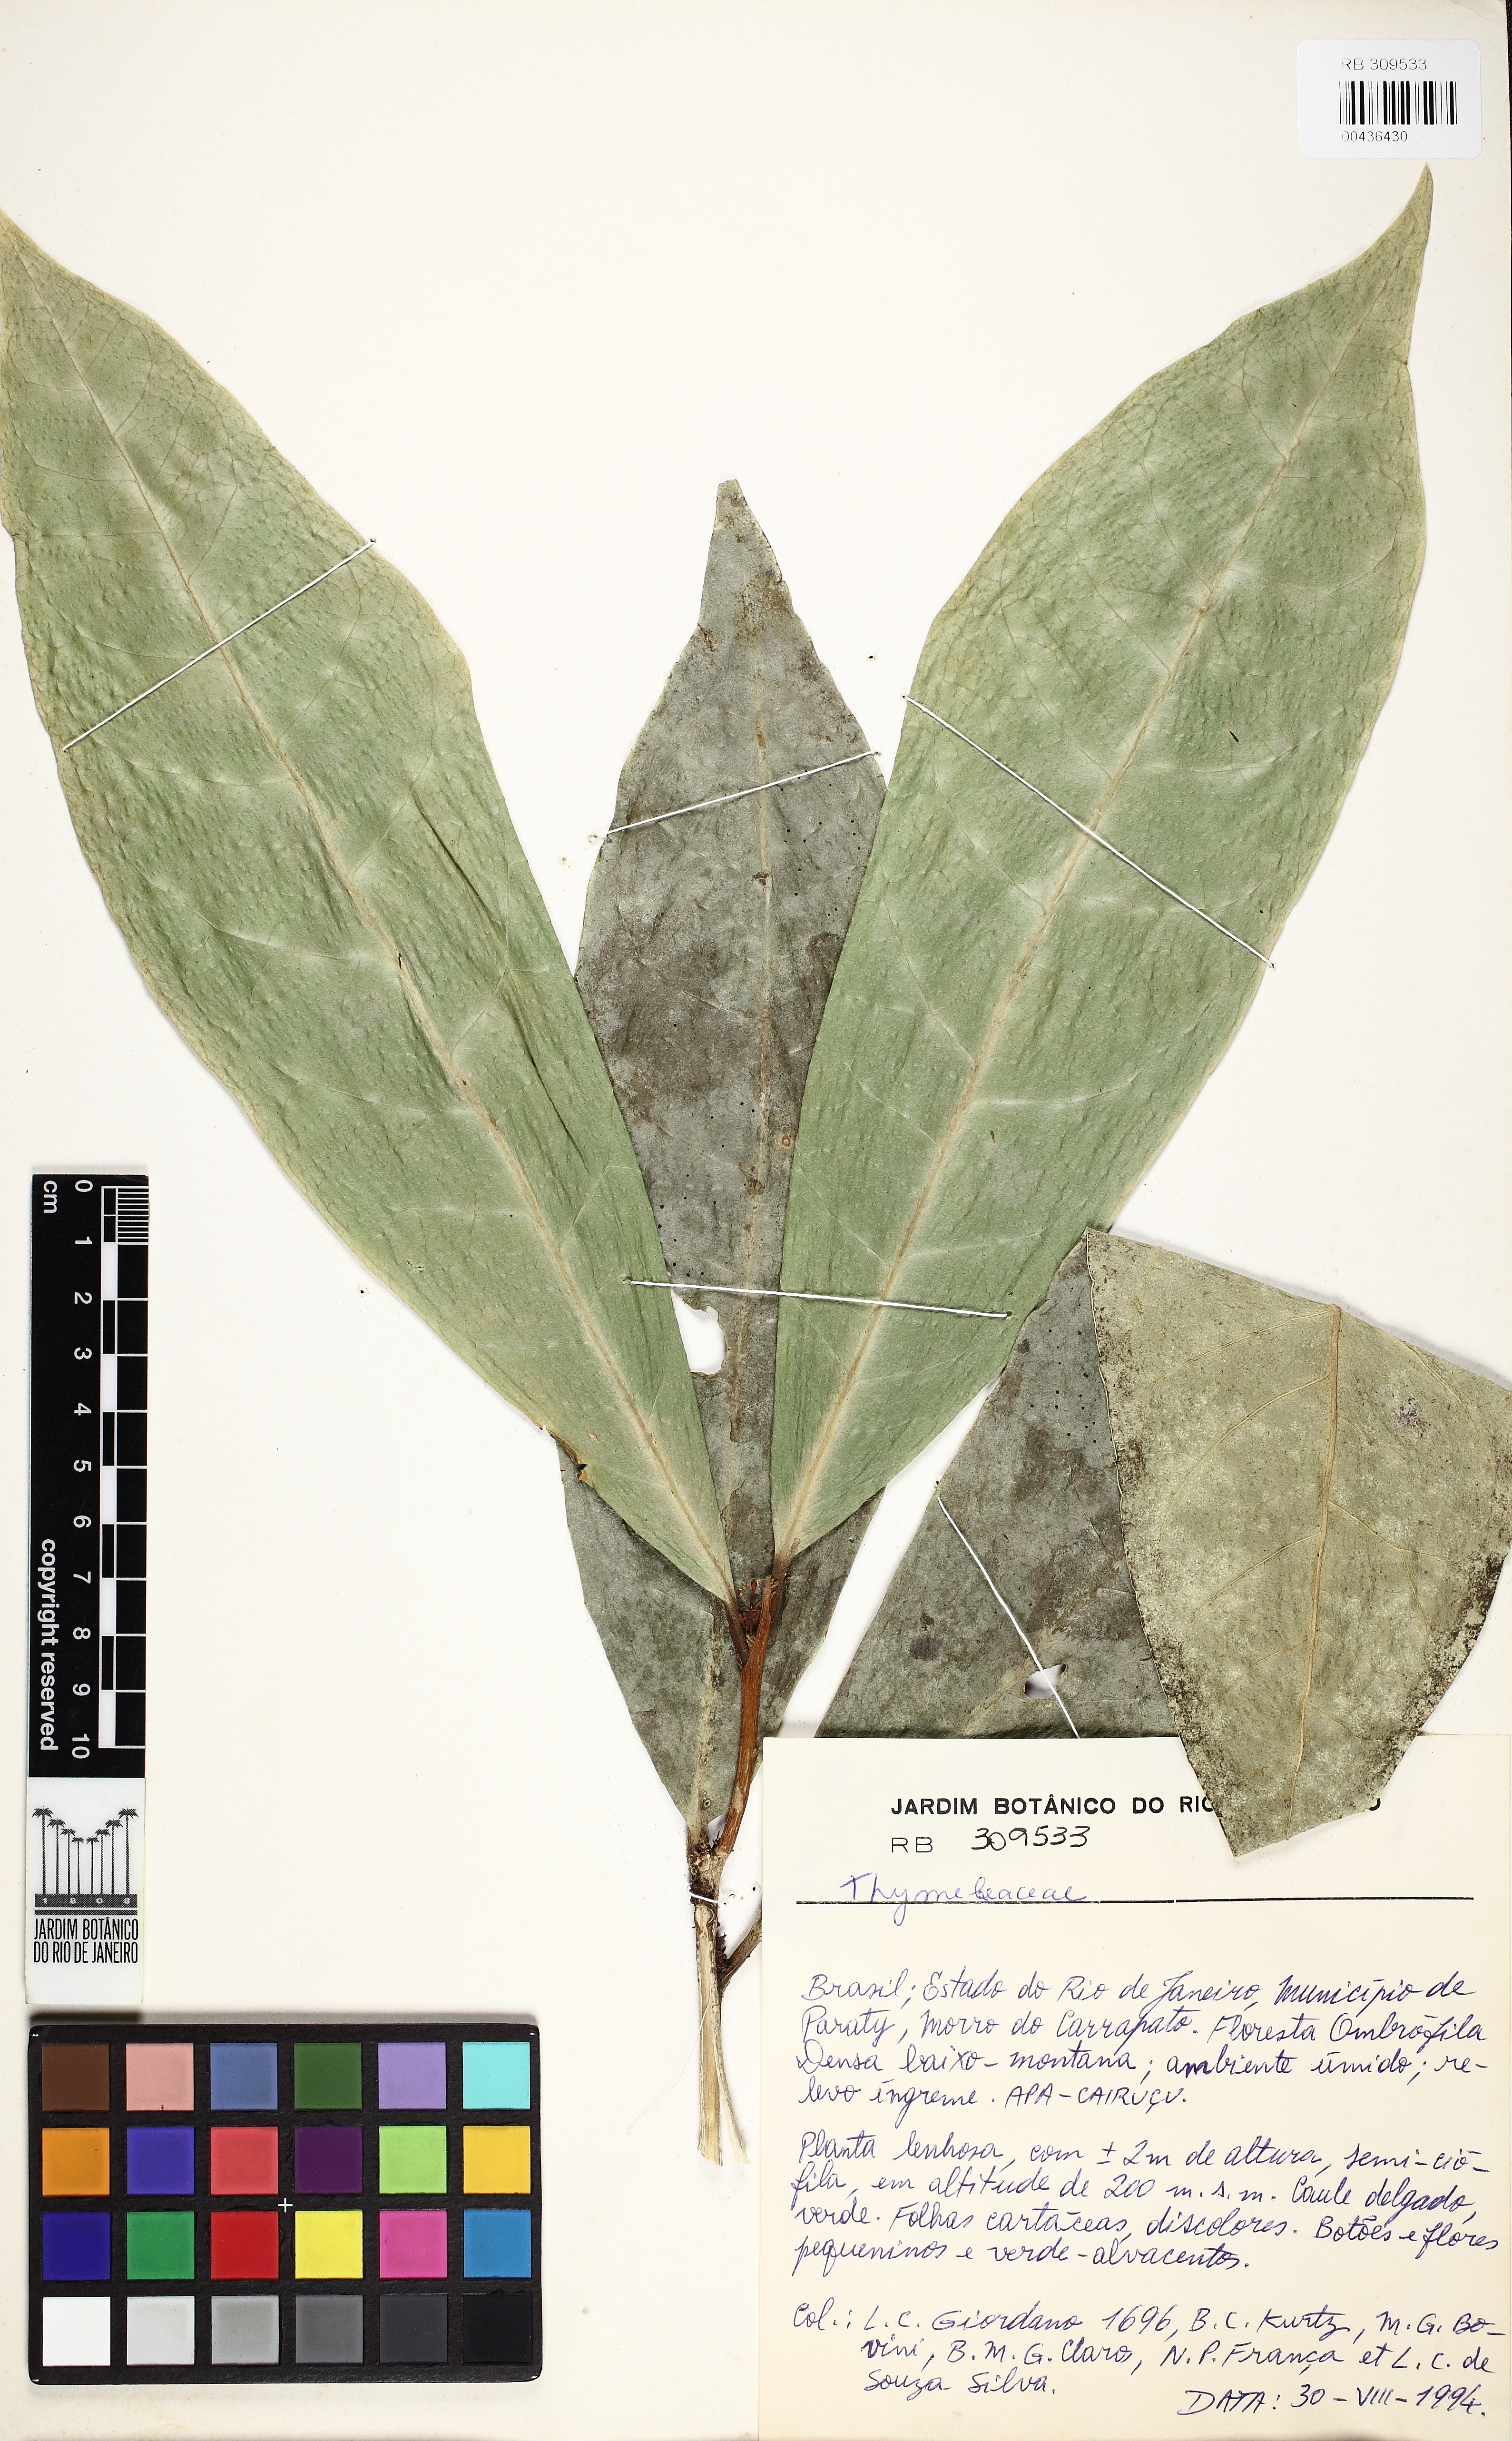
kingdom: Plantae
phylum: Tracheophyta
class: Magnoliopsida
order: Malvales
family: Thymelaeaceae
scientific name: Thymelaeaceae
